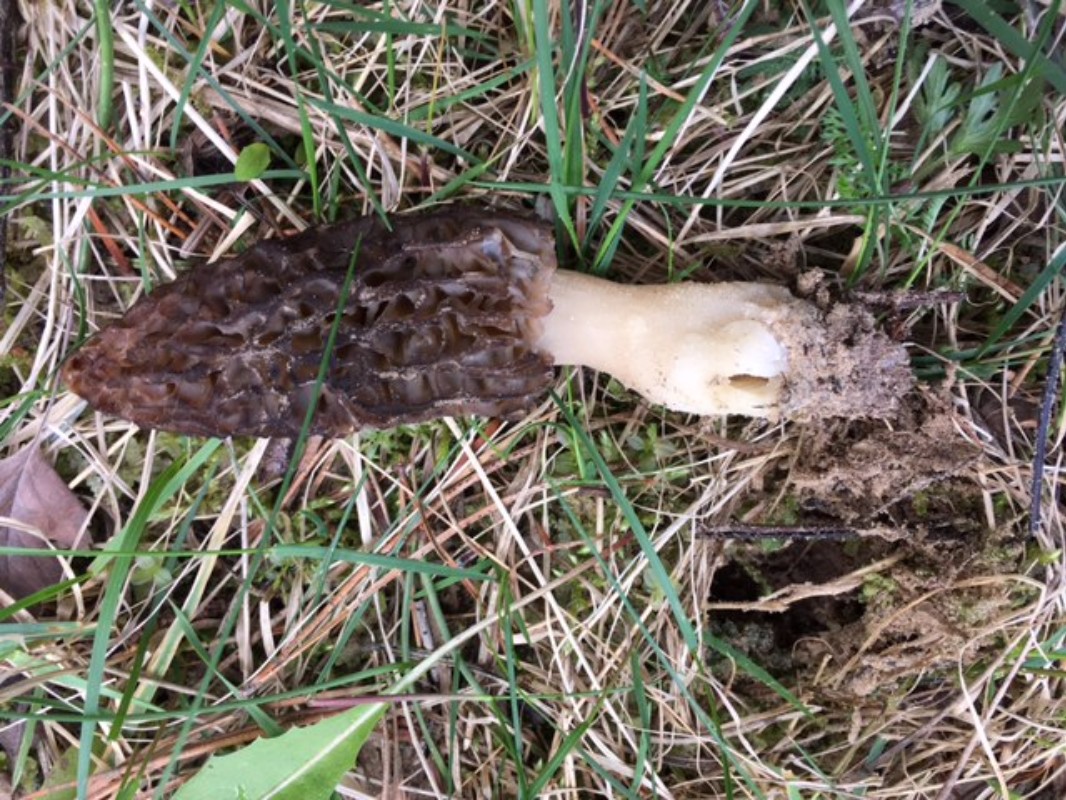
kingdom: Fungi
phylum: Ascomycota
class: Pezizomycetes
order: Pezizales
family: Morchellaceae
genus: Morchella
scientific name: Morchella esculenta
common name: Morel
